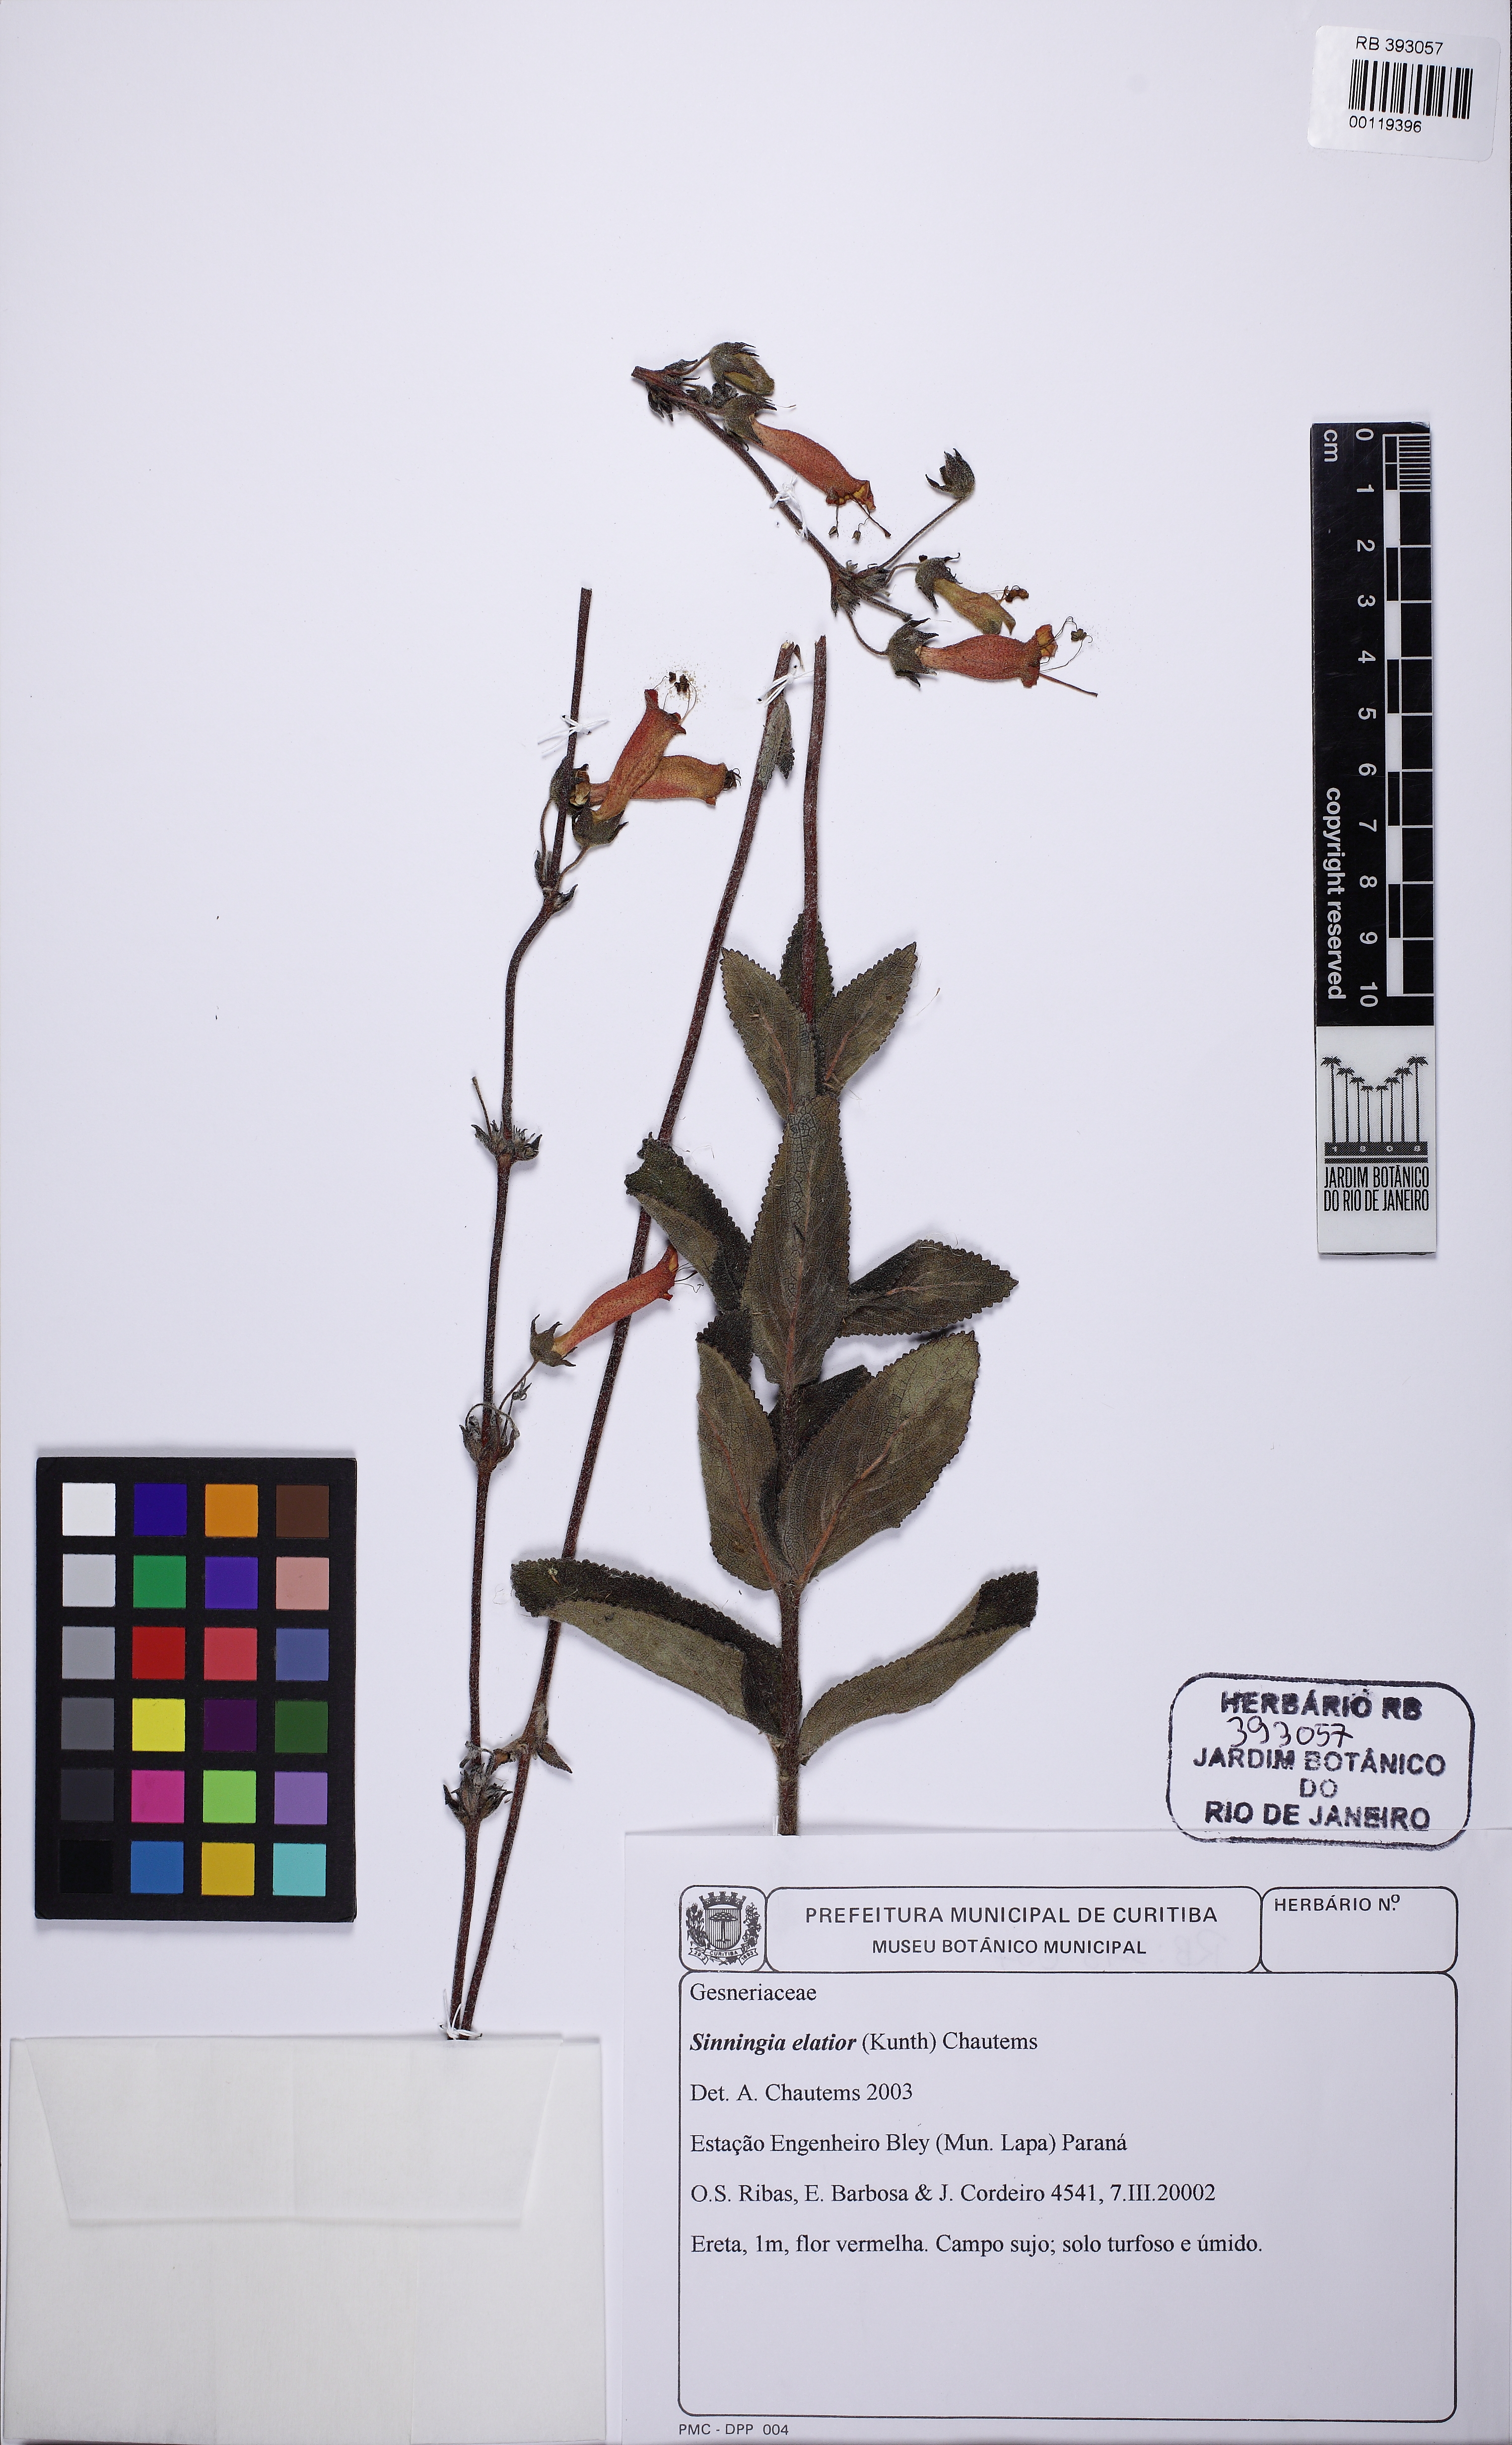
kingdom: Plantae
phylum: Tracheophyta
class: Magnoliopsida
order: Lamiales
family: Gesneriaceae
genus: Sinningia
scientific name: Sinningia elatior
